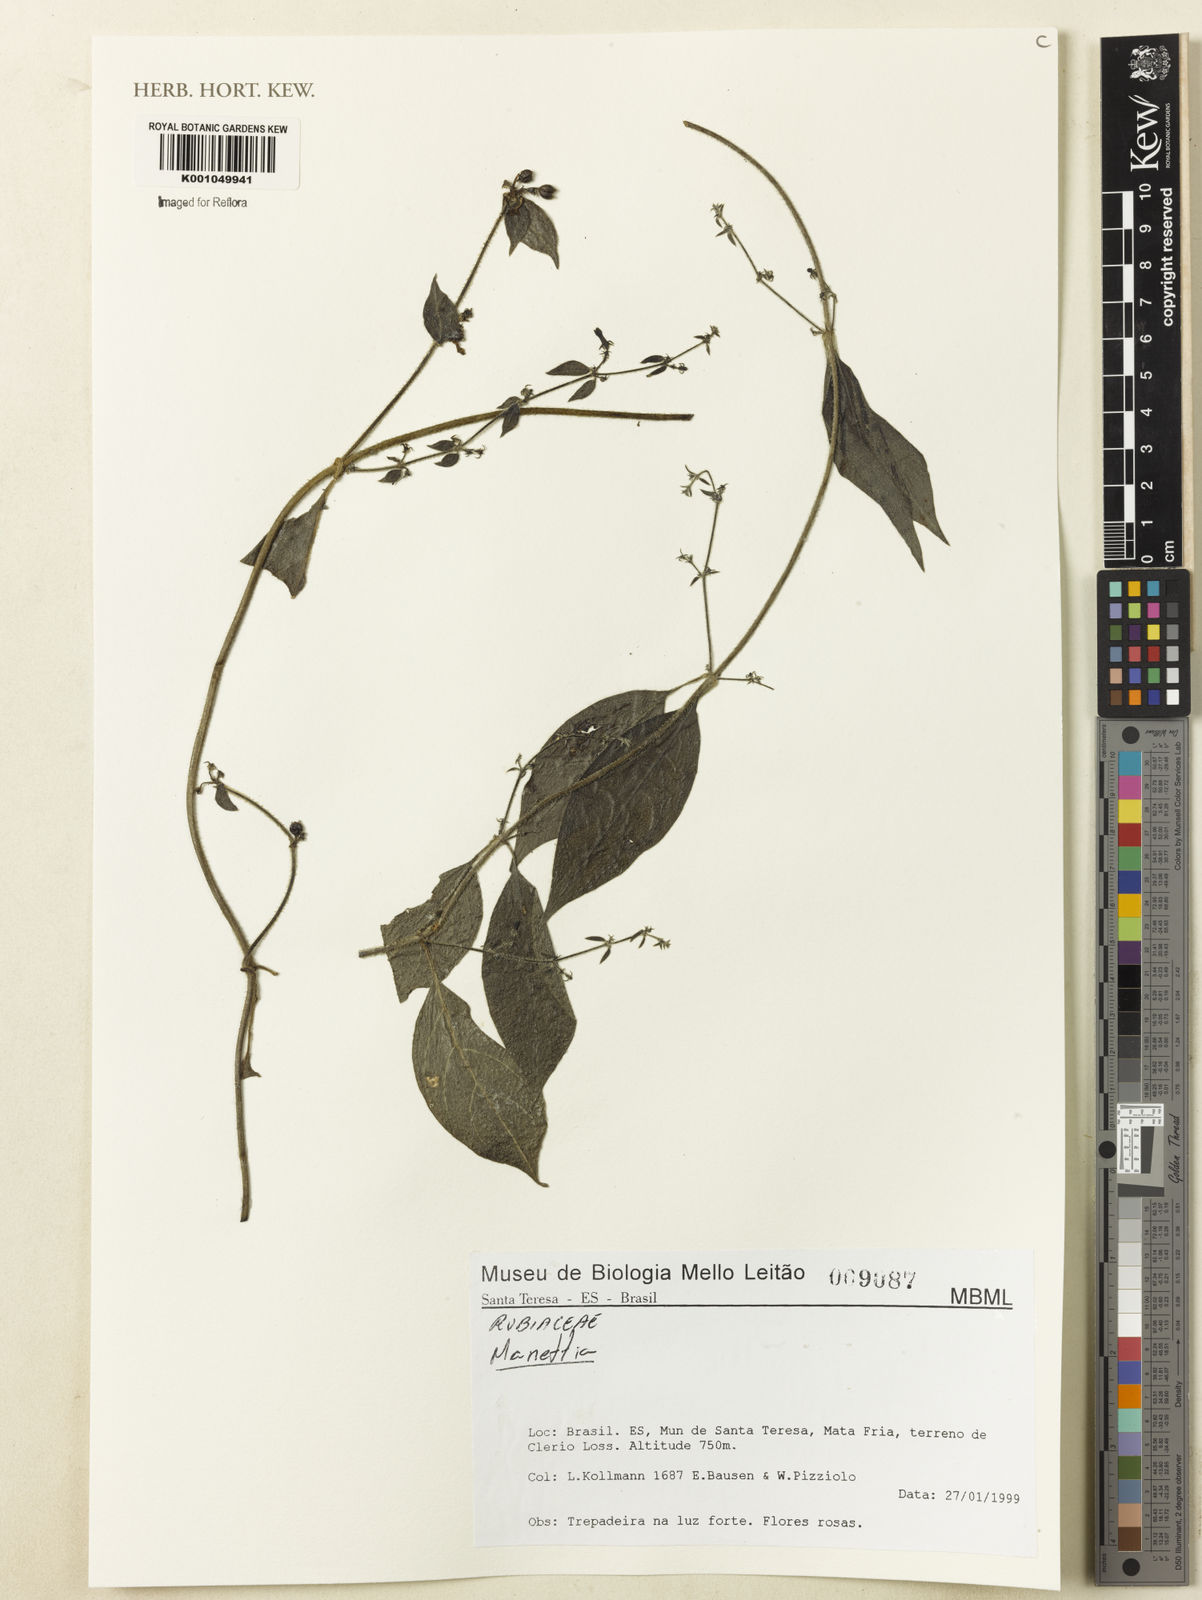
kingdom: Plantae
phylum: Tracheophyta
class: Magnoliopsida
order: Gentianales
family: Rubiaceae
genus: Manettia
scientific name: Manettia
